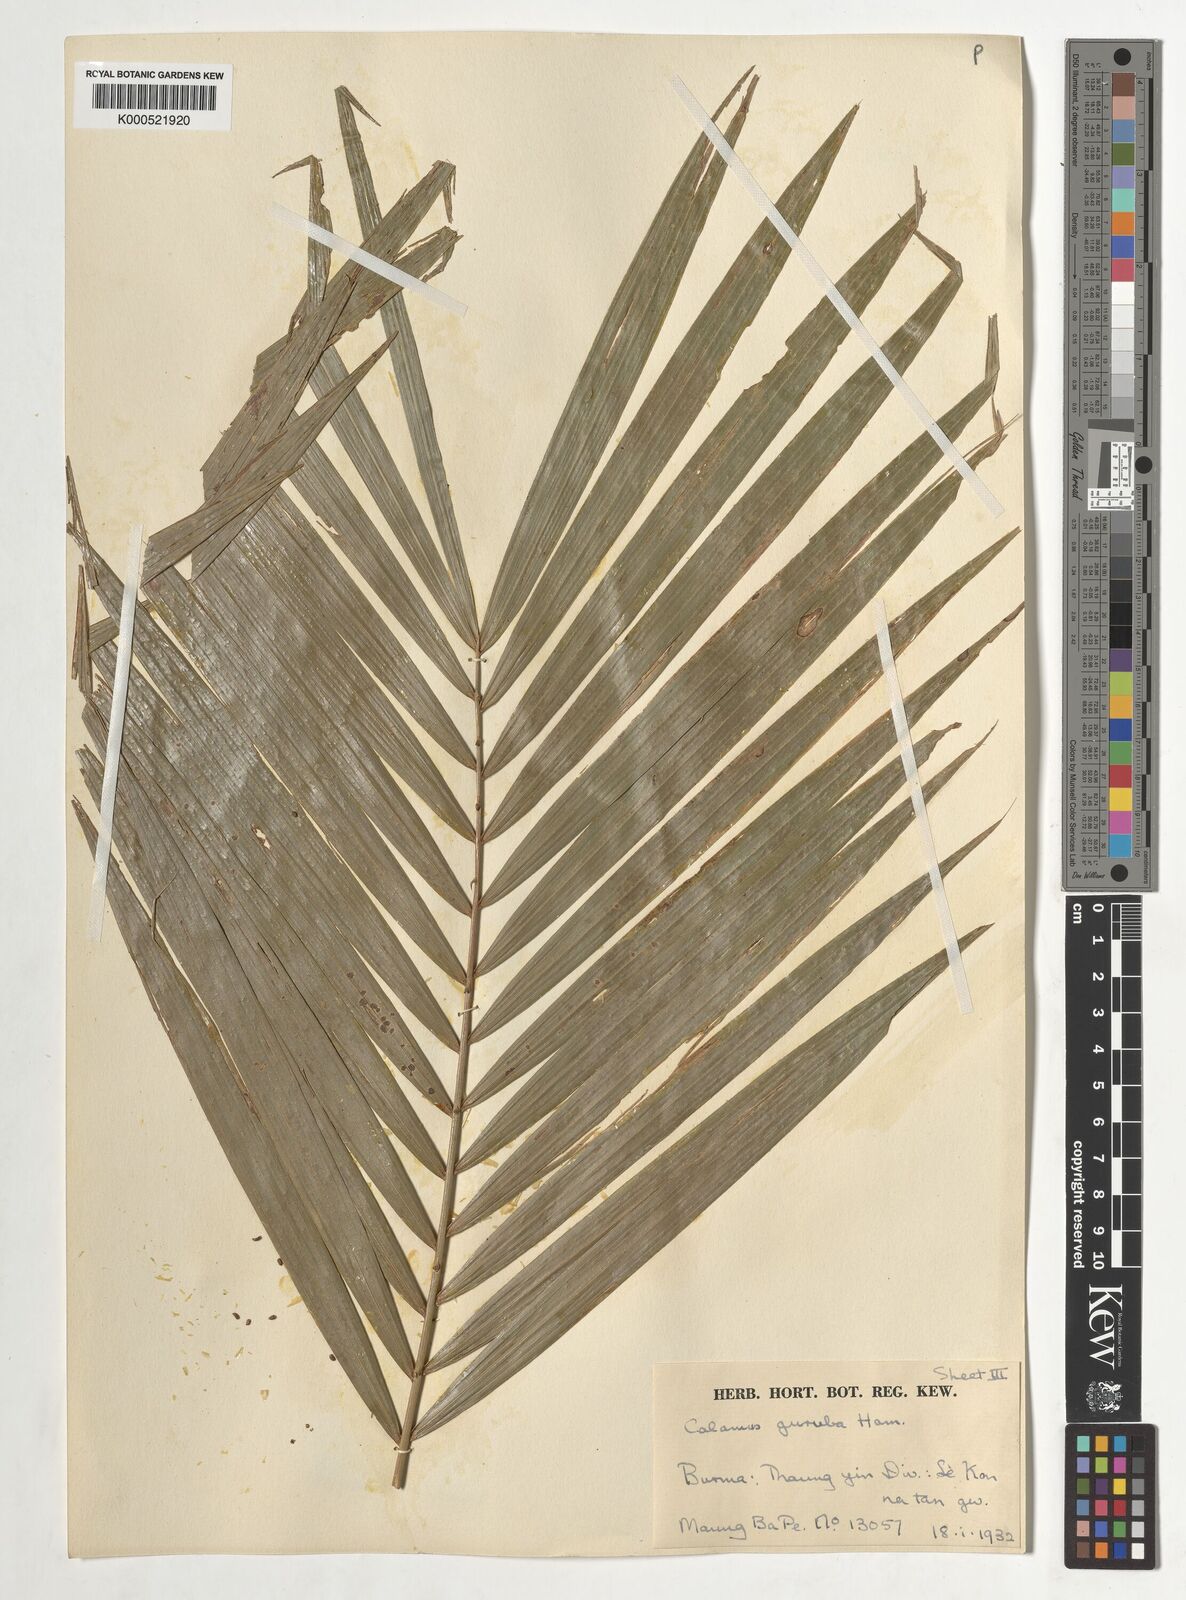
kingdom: Plantae
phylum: Tracheophyta
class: Liliopsida
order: Arecales
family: Arecaceae
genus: Calamus
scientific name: Calamus
